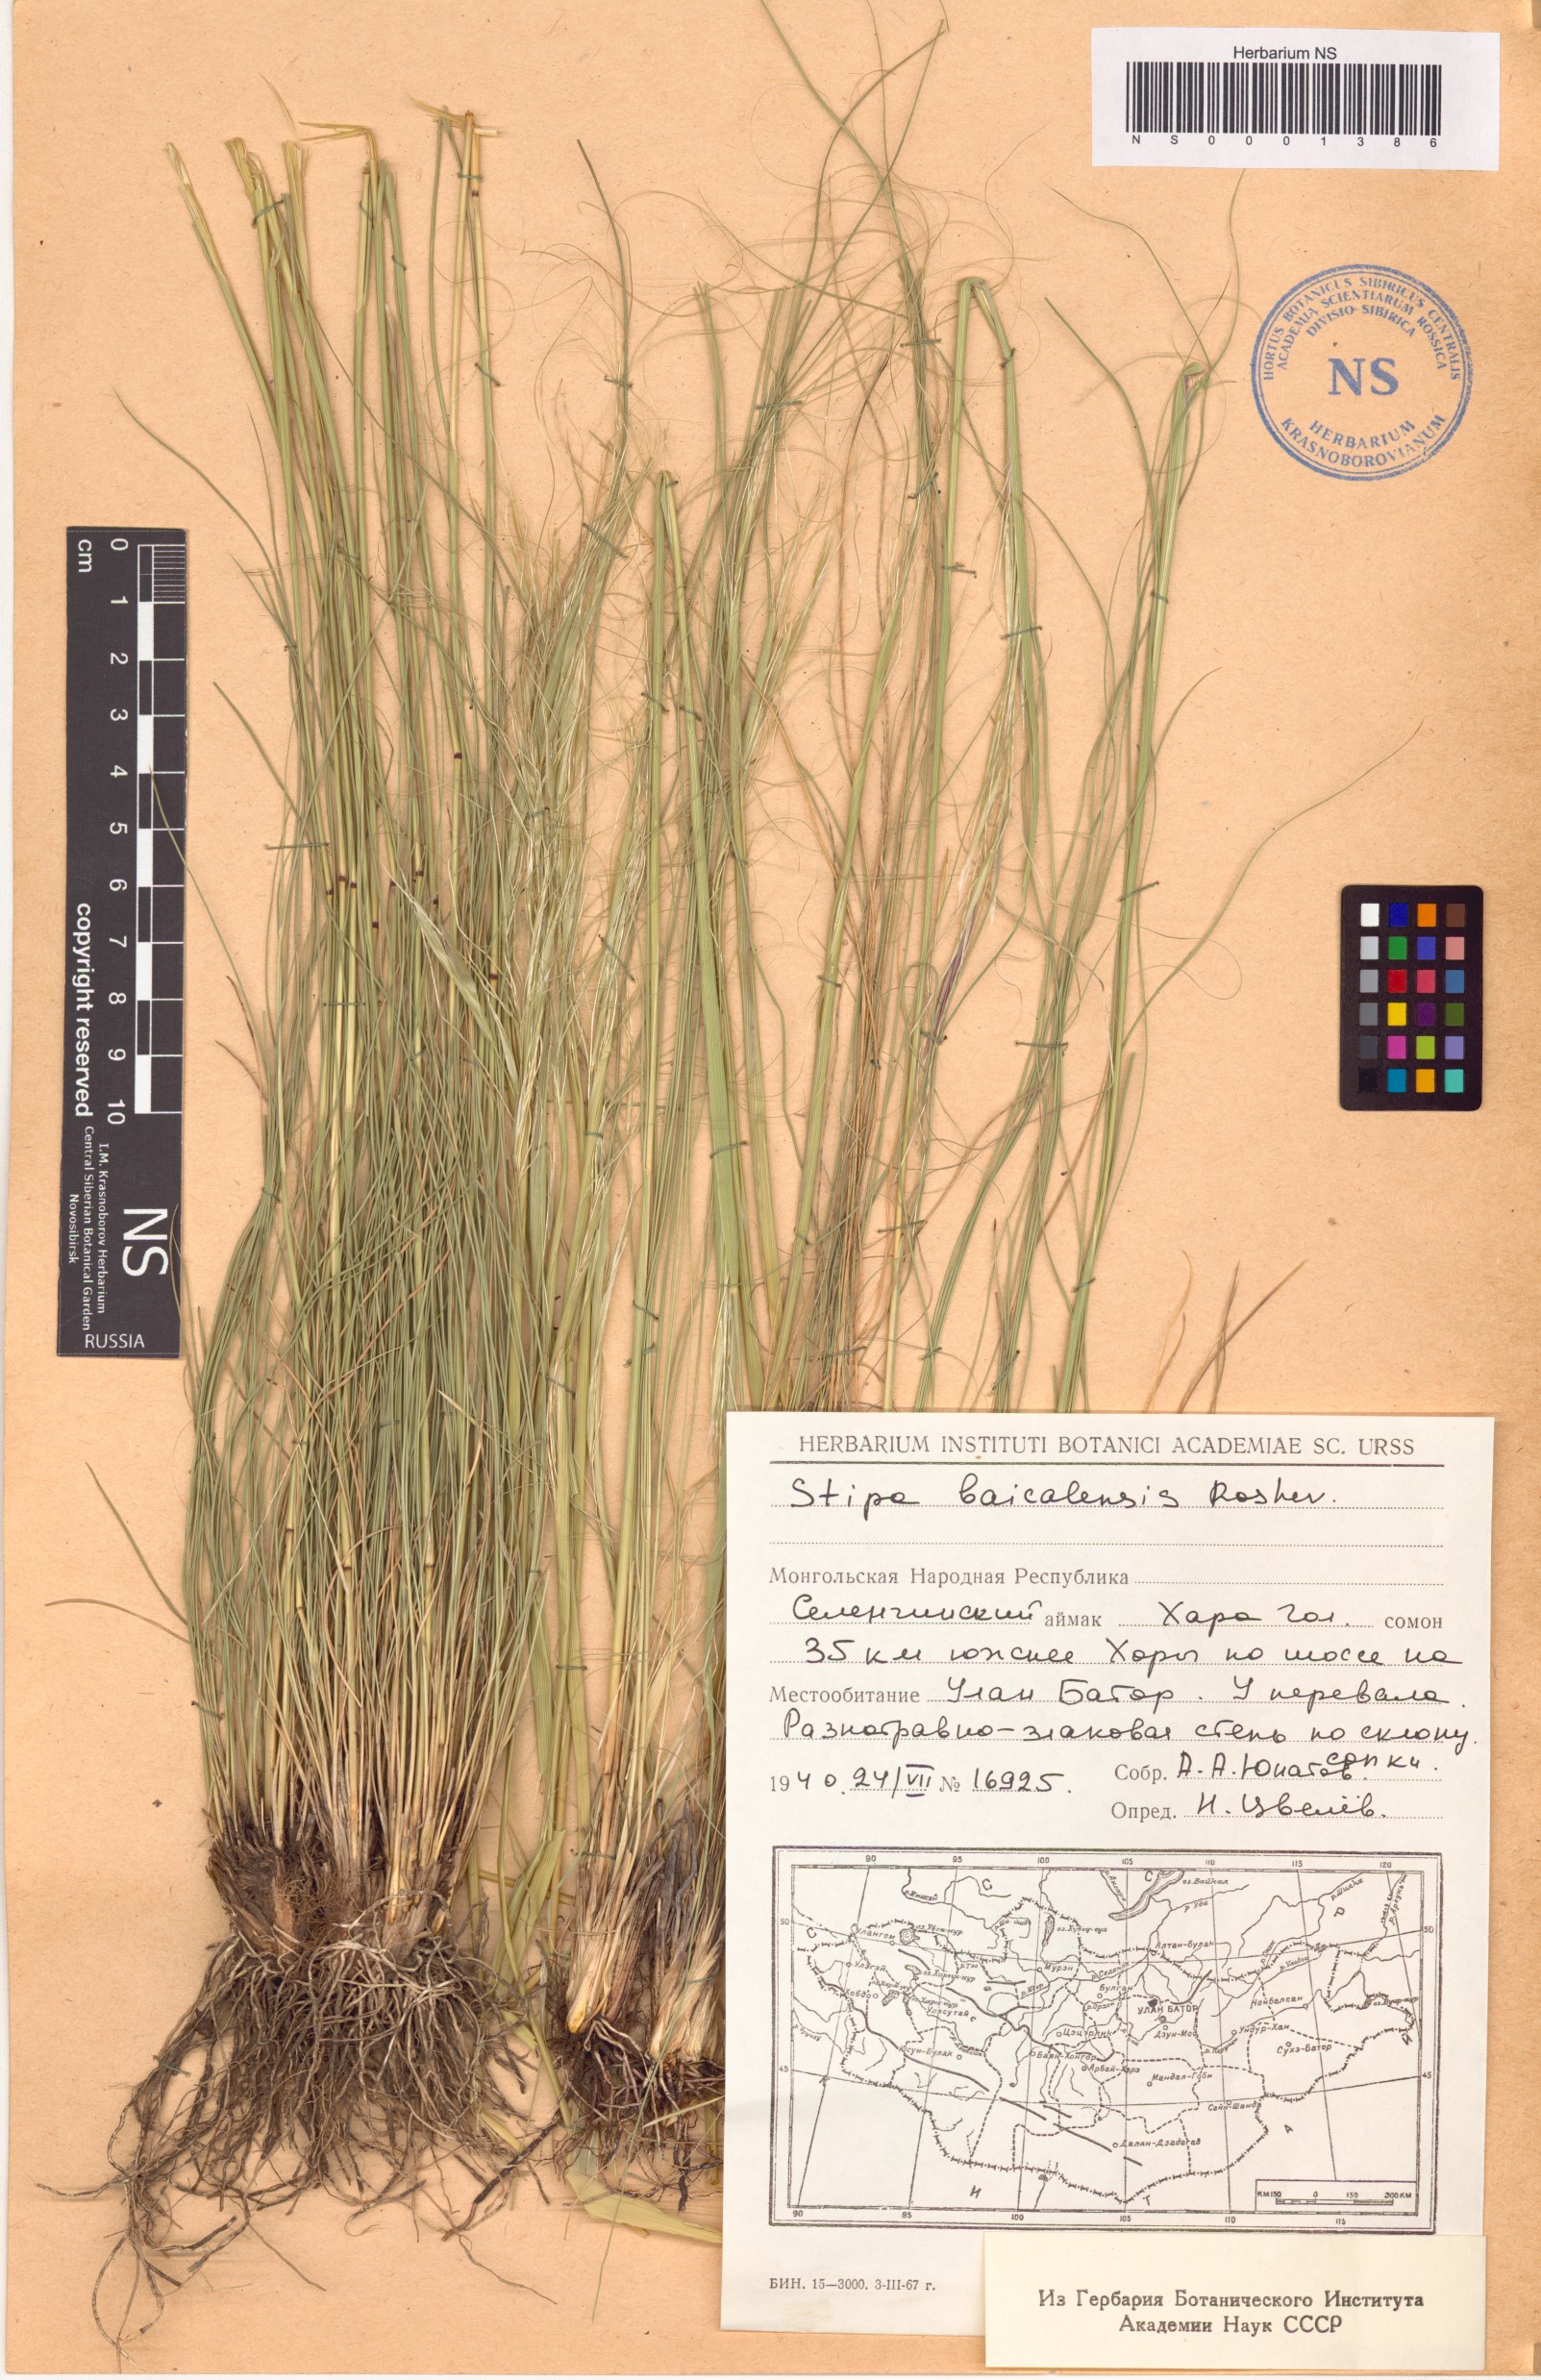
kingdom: Plantae
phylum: Tracheophyta
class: Liliopsida
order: Poales
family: Poaceae
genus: Stipa
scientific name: Stipa baicalensis
